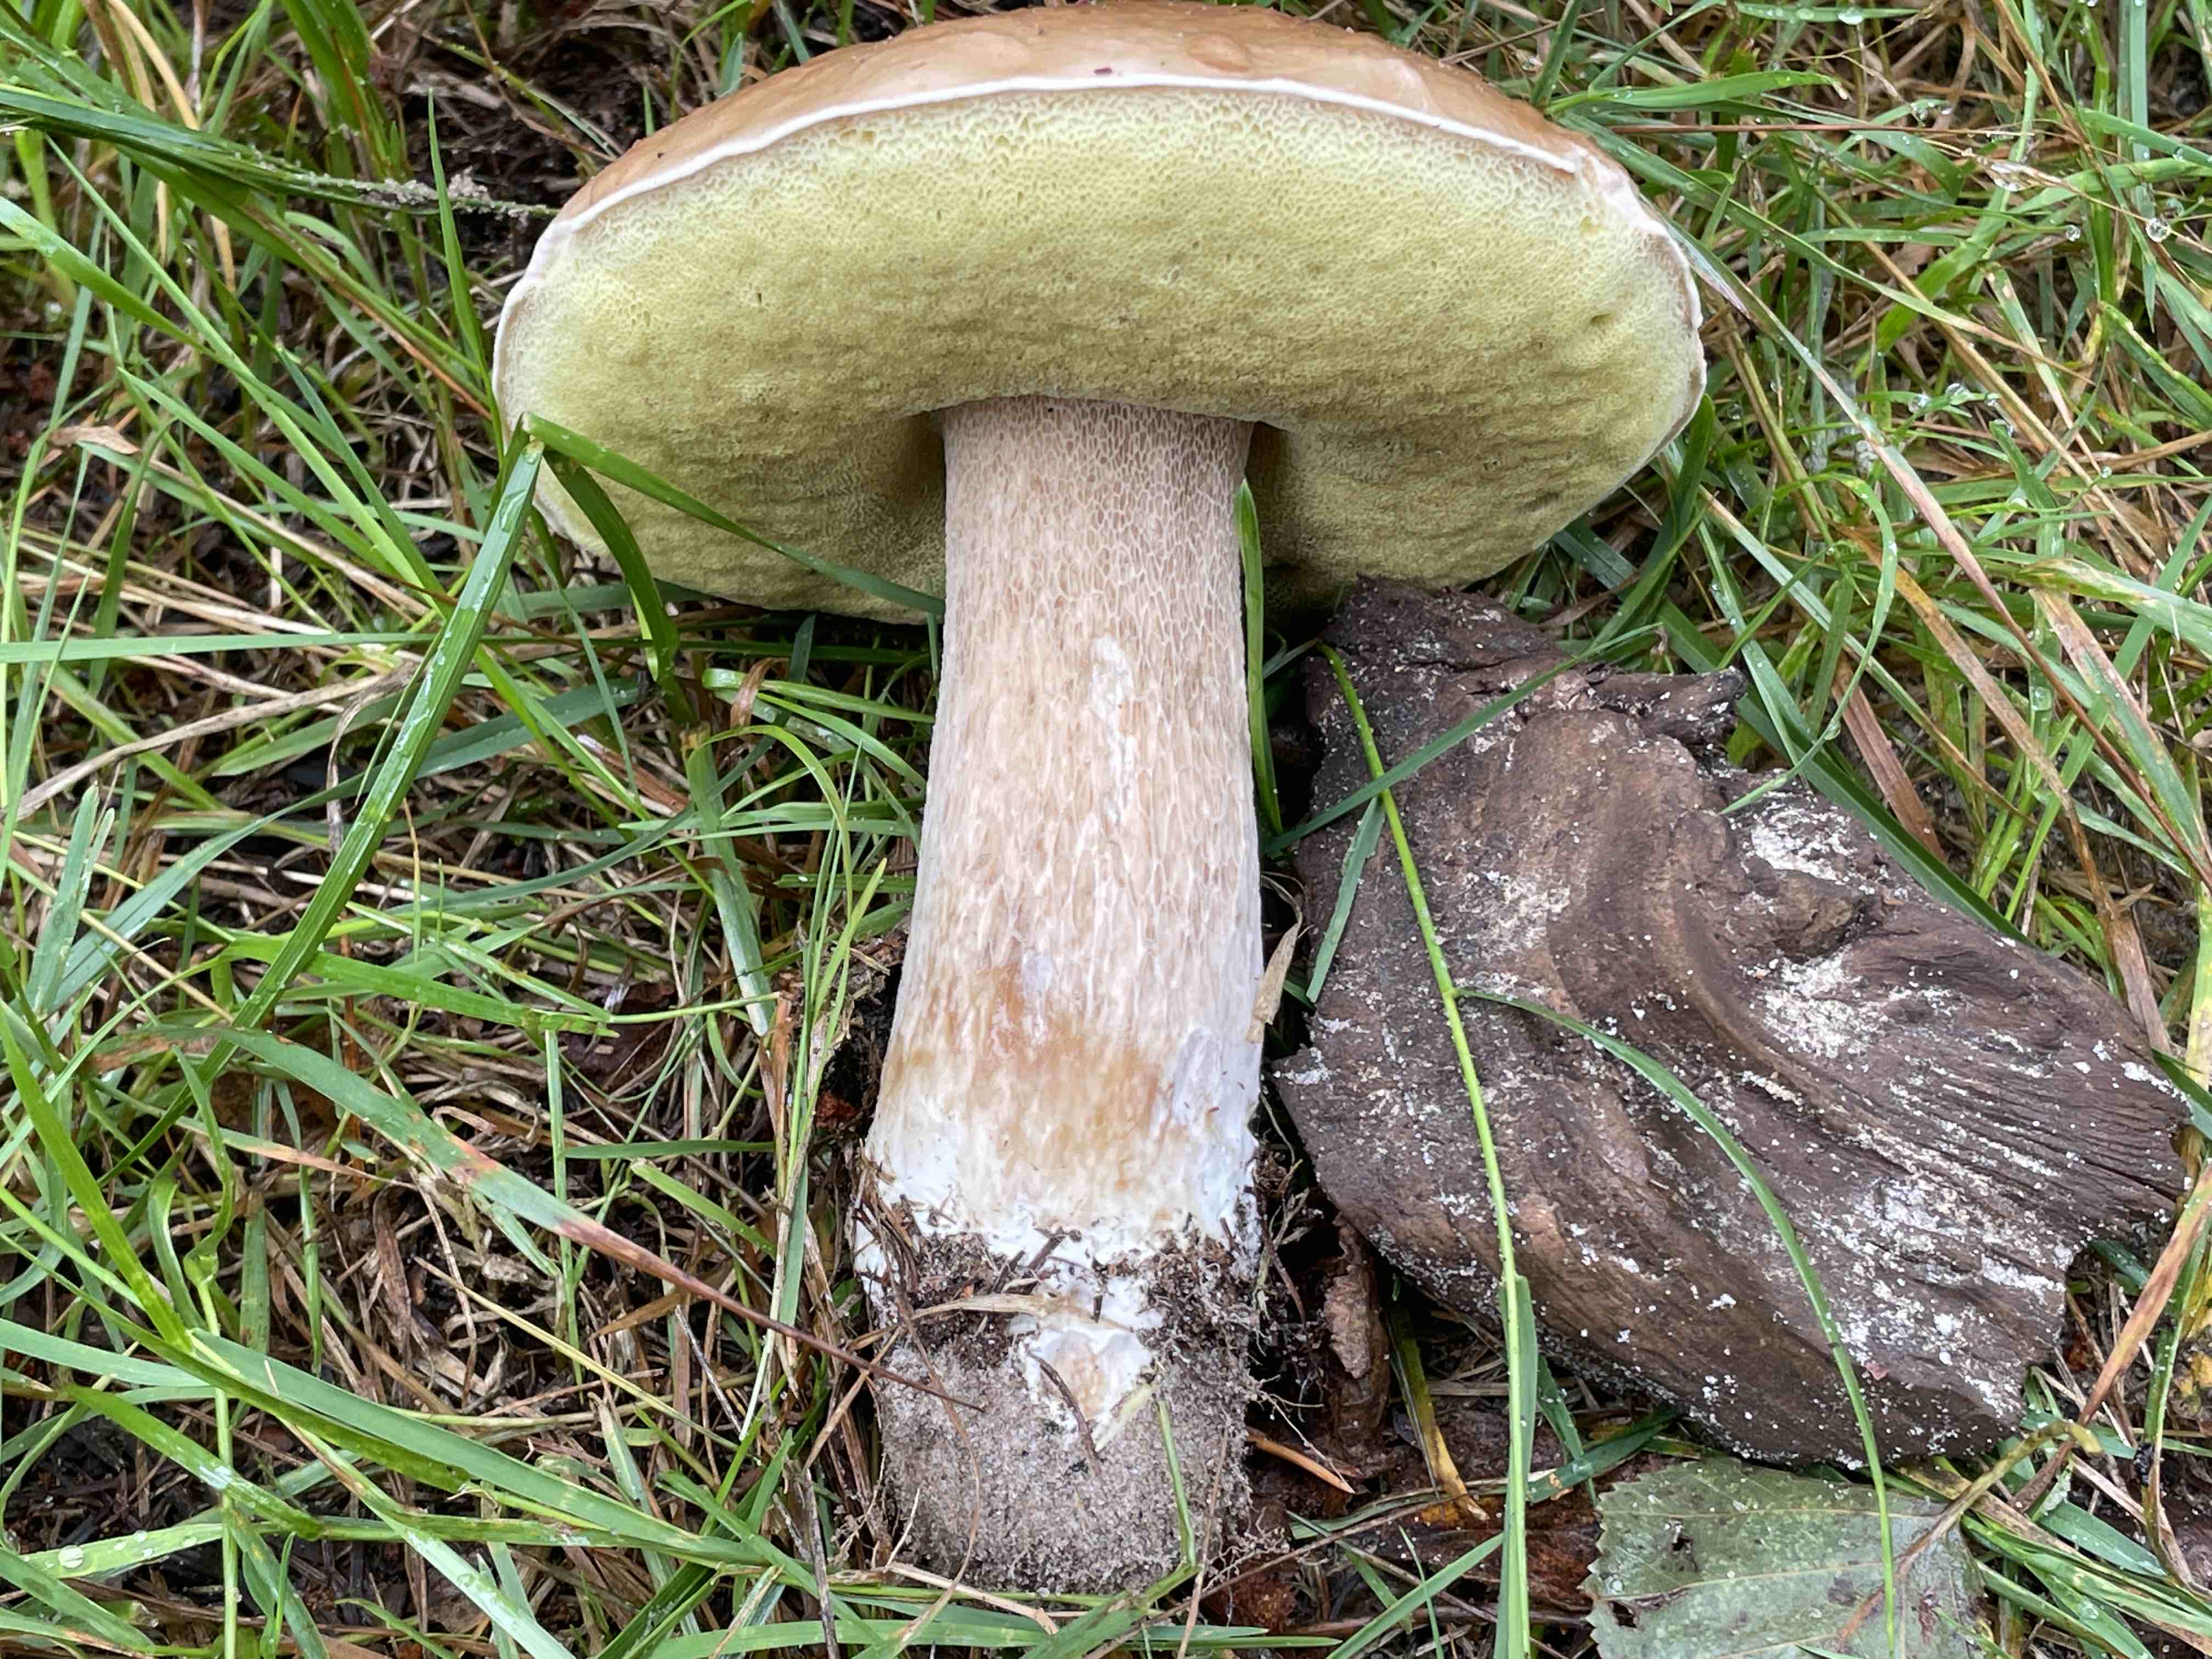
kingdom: Fungi
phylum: Basidiomycota
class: Agaricomycetes
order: Boletales
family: Boletaceae
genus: Boletus
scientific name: Boletus edulis
